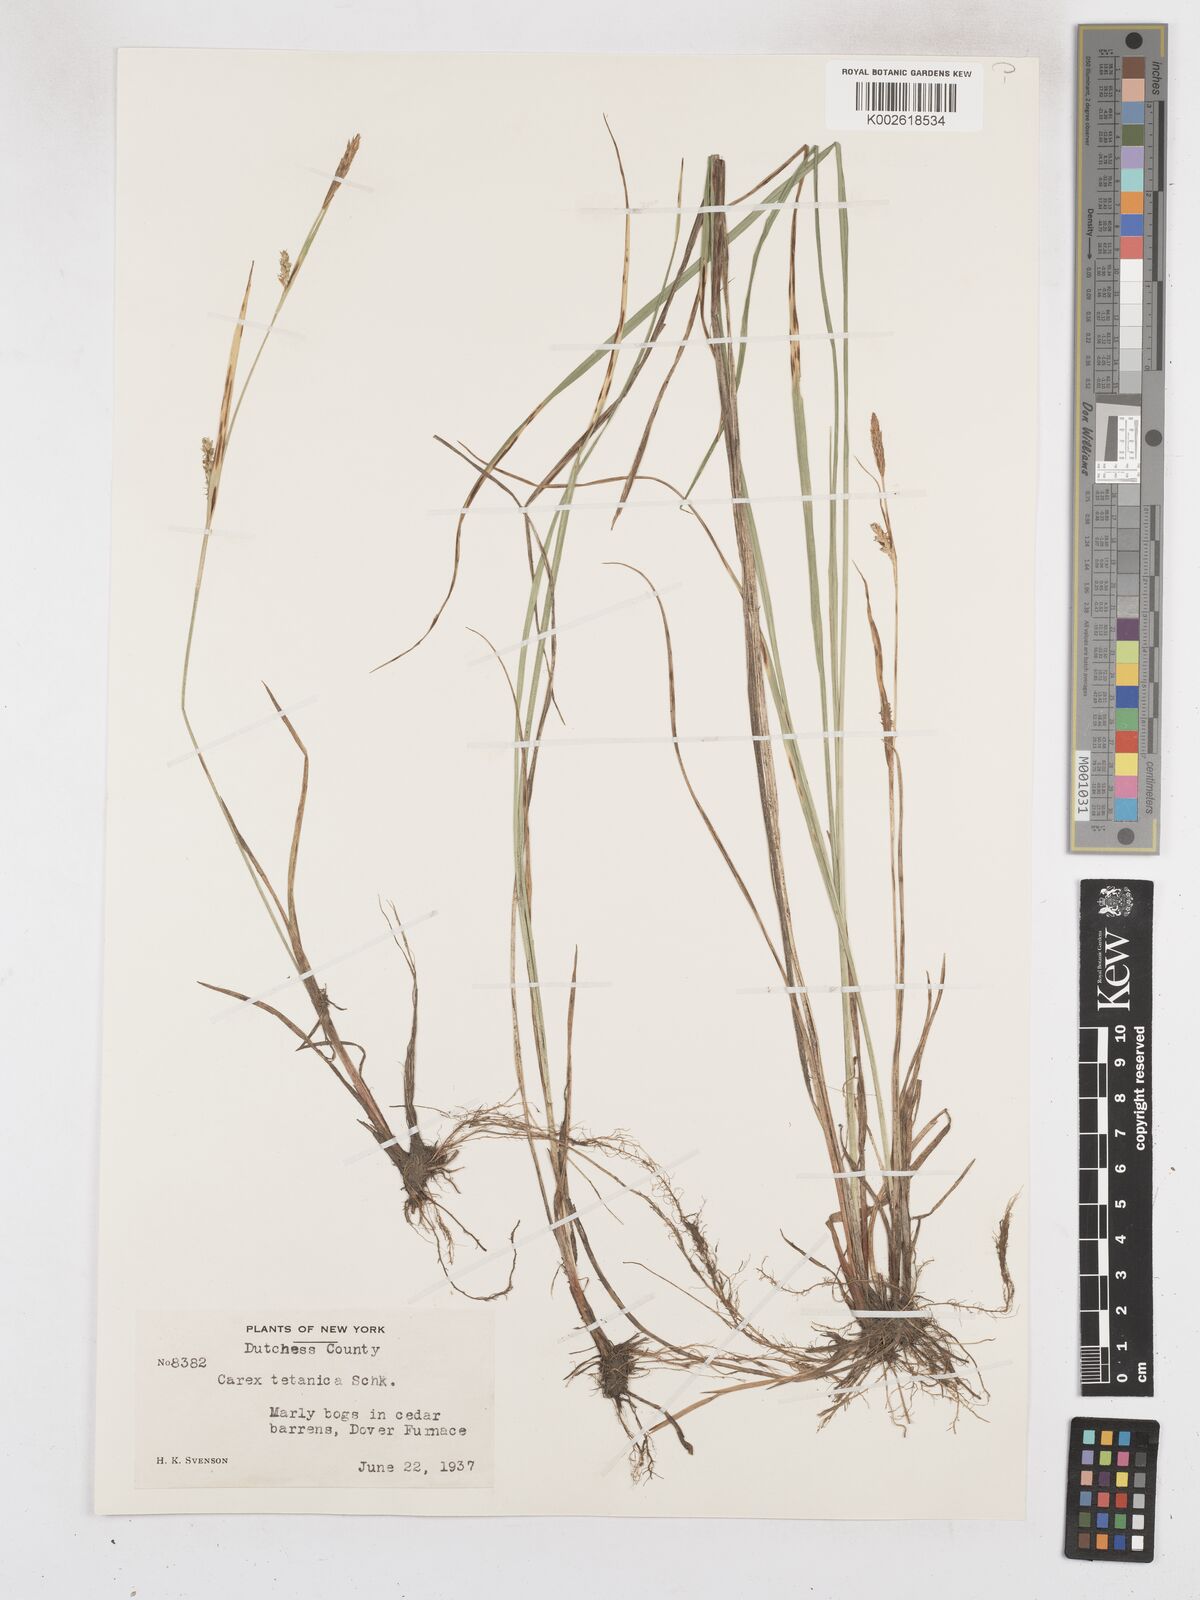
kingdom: Plantae
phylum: Tracheophyta
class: Liliopsida
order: Poales
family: Cyperaceae
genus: Carex
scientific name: Carex tetanica
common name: Rigid sedge
